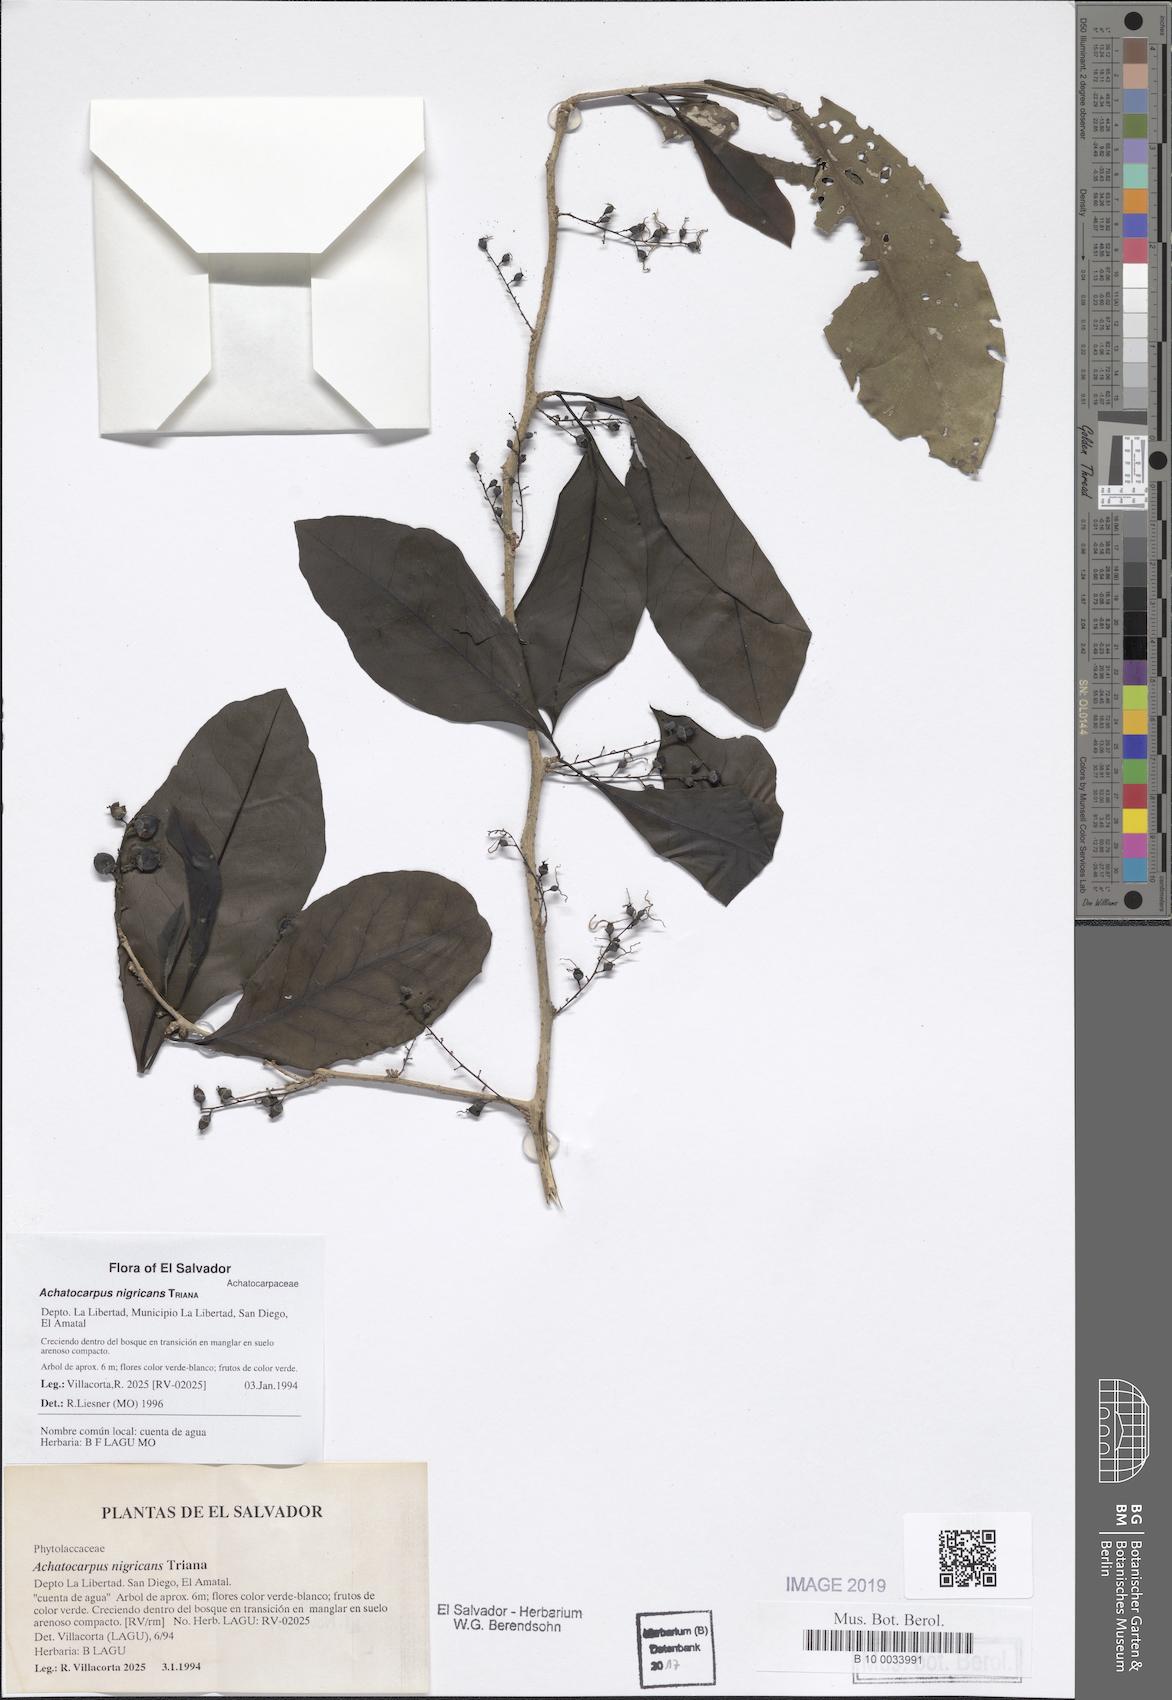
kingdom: Plantae
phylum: Tracheophyta
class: Magnoliopsida
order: Caryophyllales
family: Achatocarpaceae
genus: Achatocarpus
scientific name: Achatocarpus nigricans
